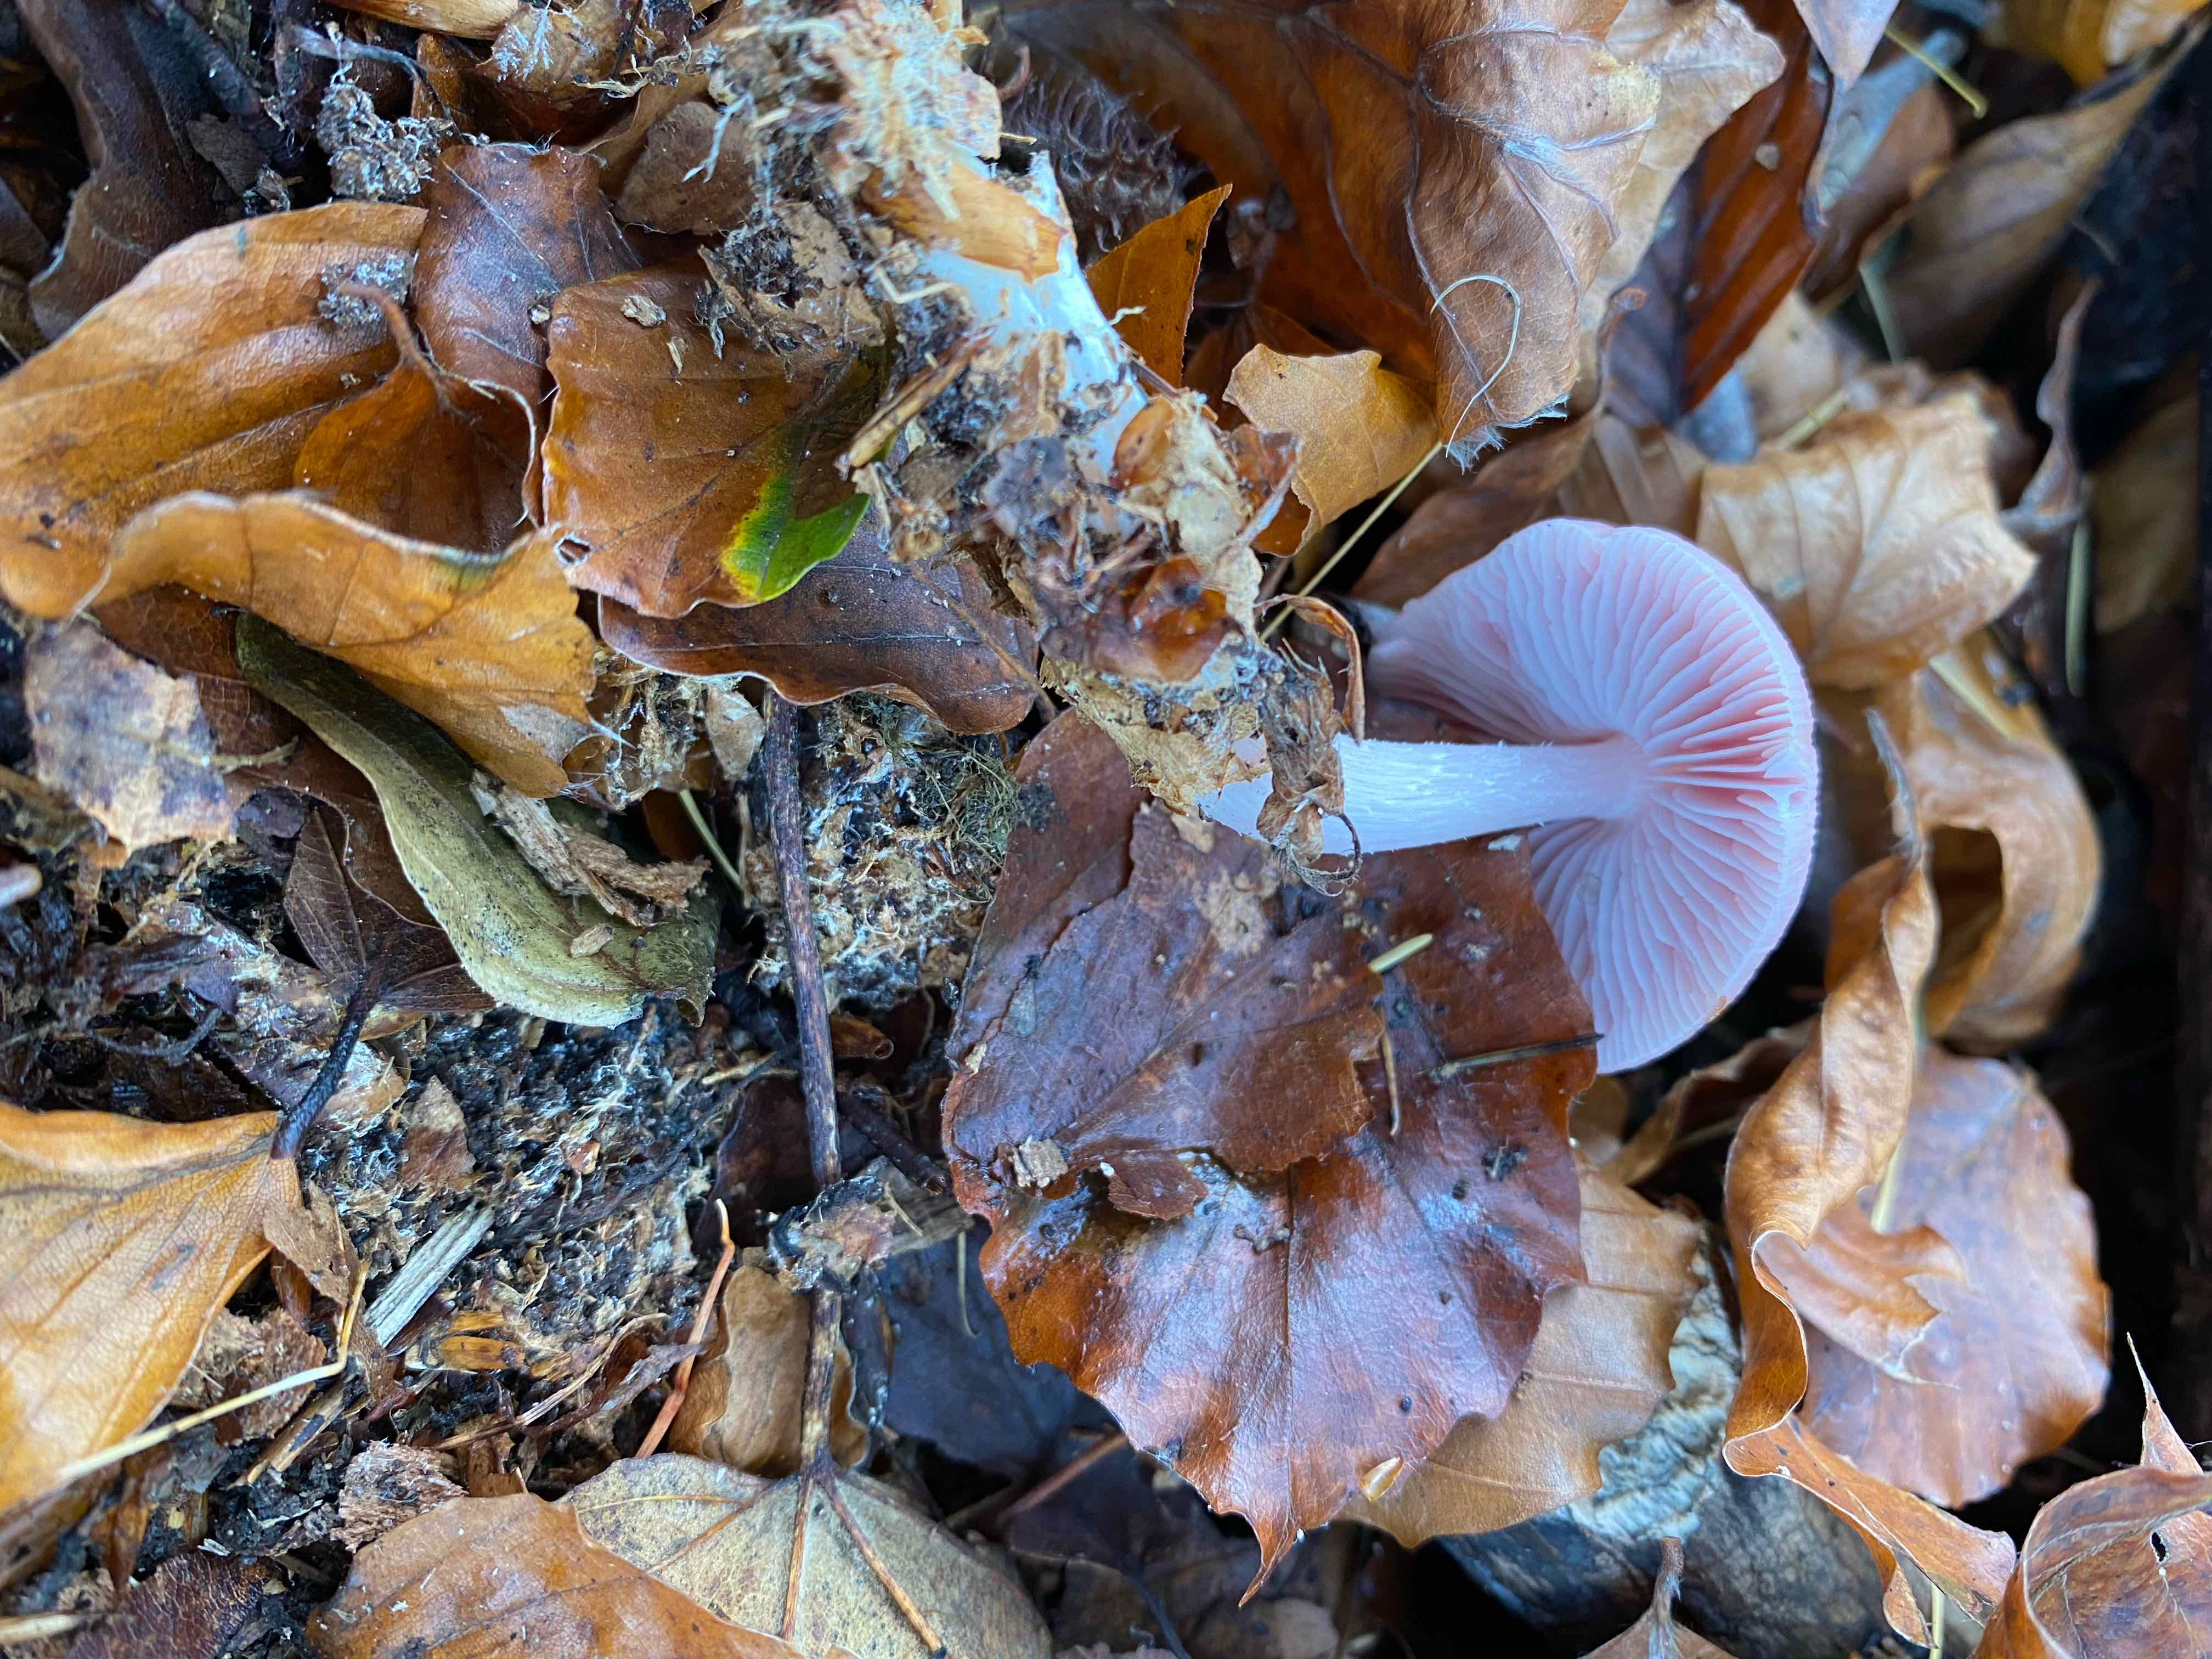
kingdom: Fungi
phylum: Basidiomycota
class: Agaricomycetes
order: Agaricales
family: Mycenaceae
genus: Mycena
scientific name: Mycena rosea
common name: rosa huesvamp
